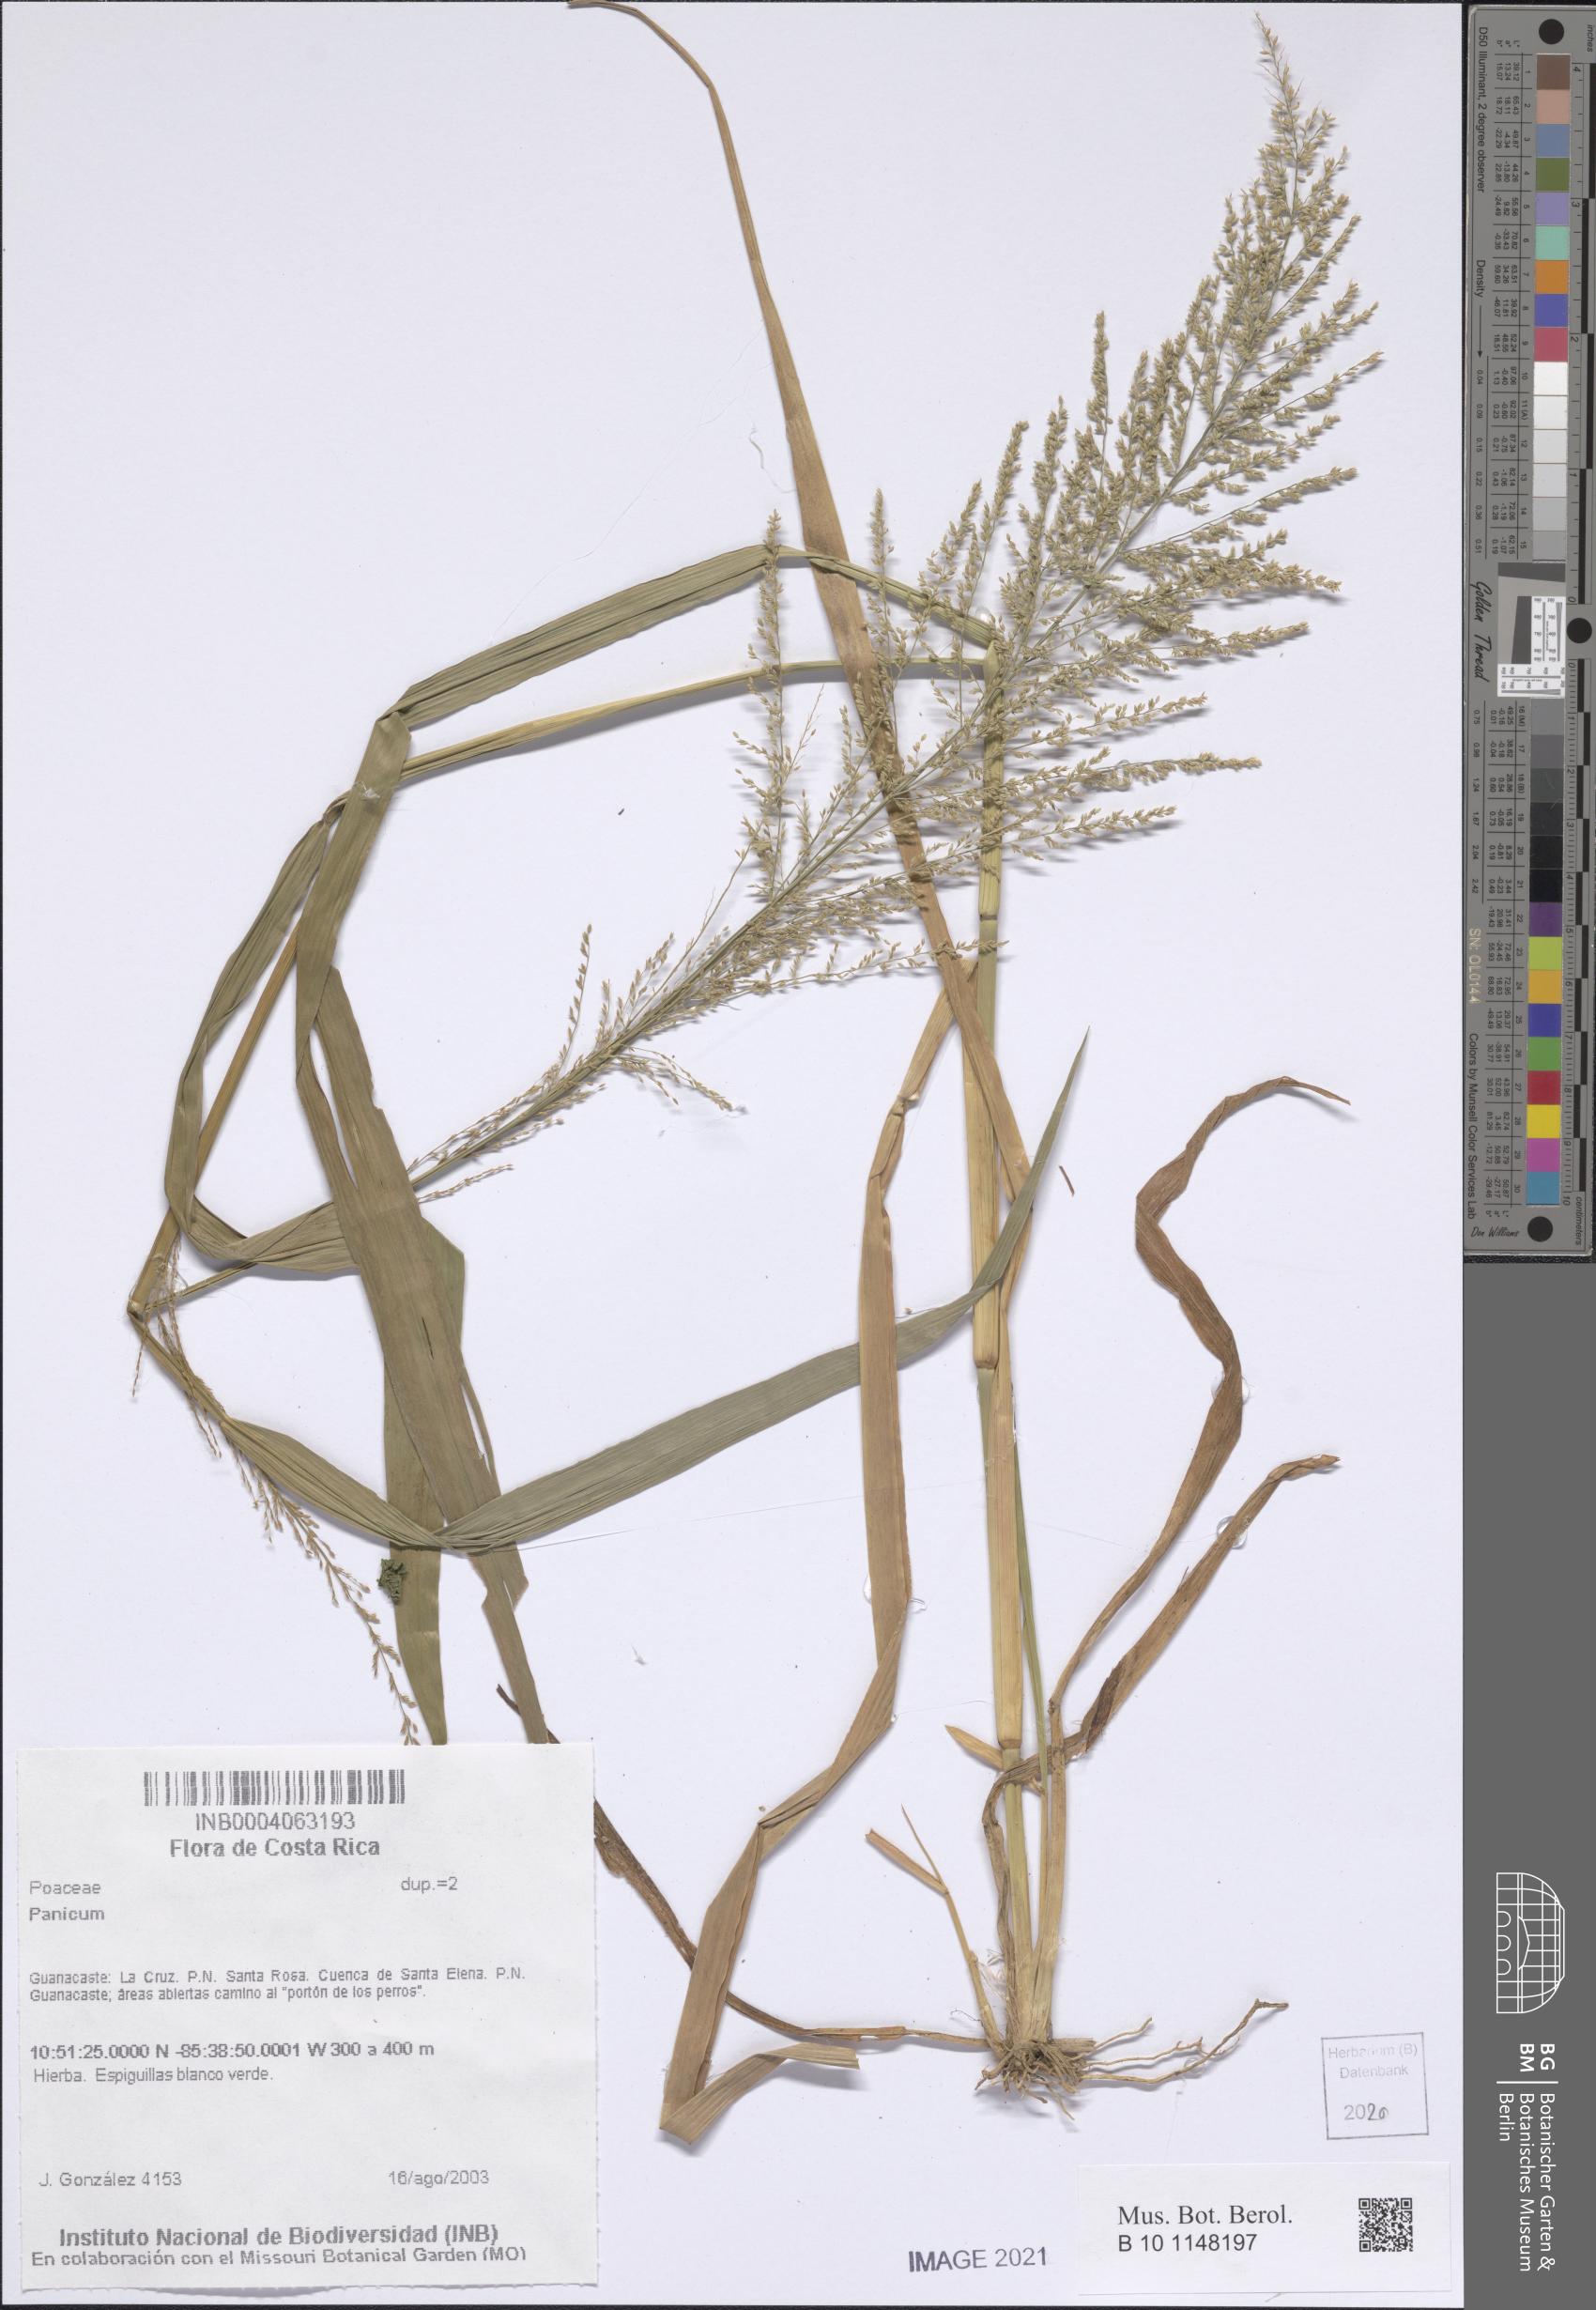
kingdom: Plantae
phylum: Tracheophyta
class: Liliopsida
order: Poales
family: Poaceae
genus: Panicum
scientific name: Panicum
